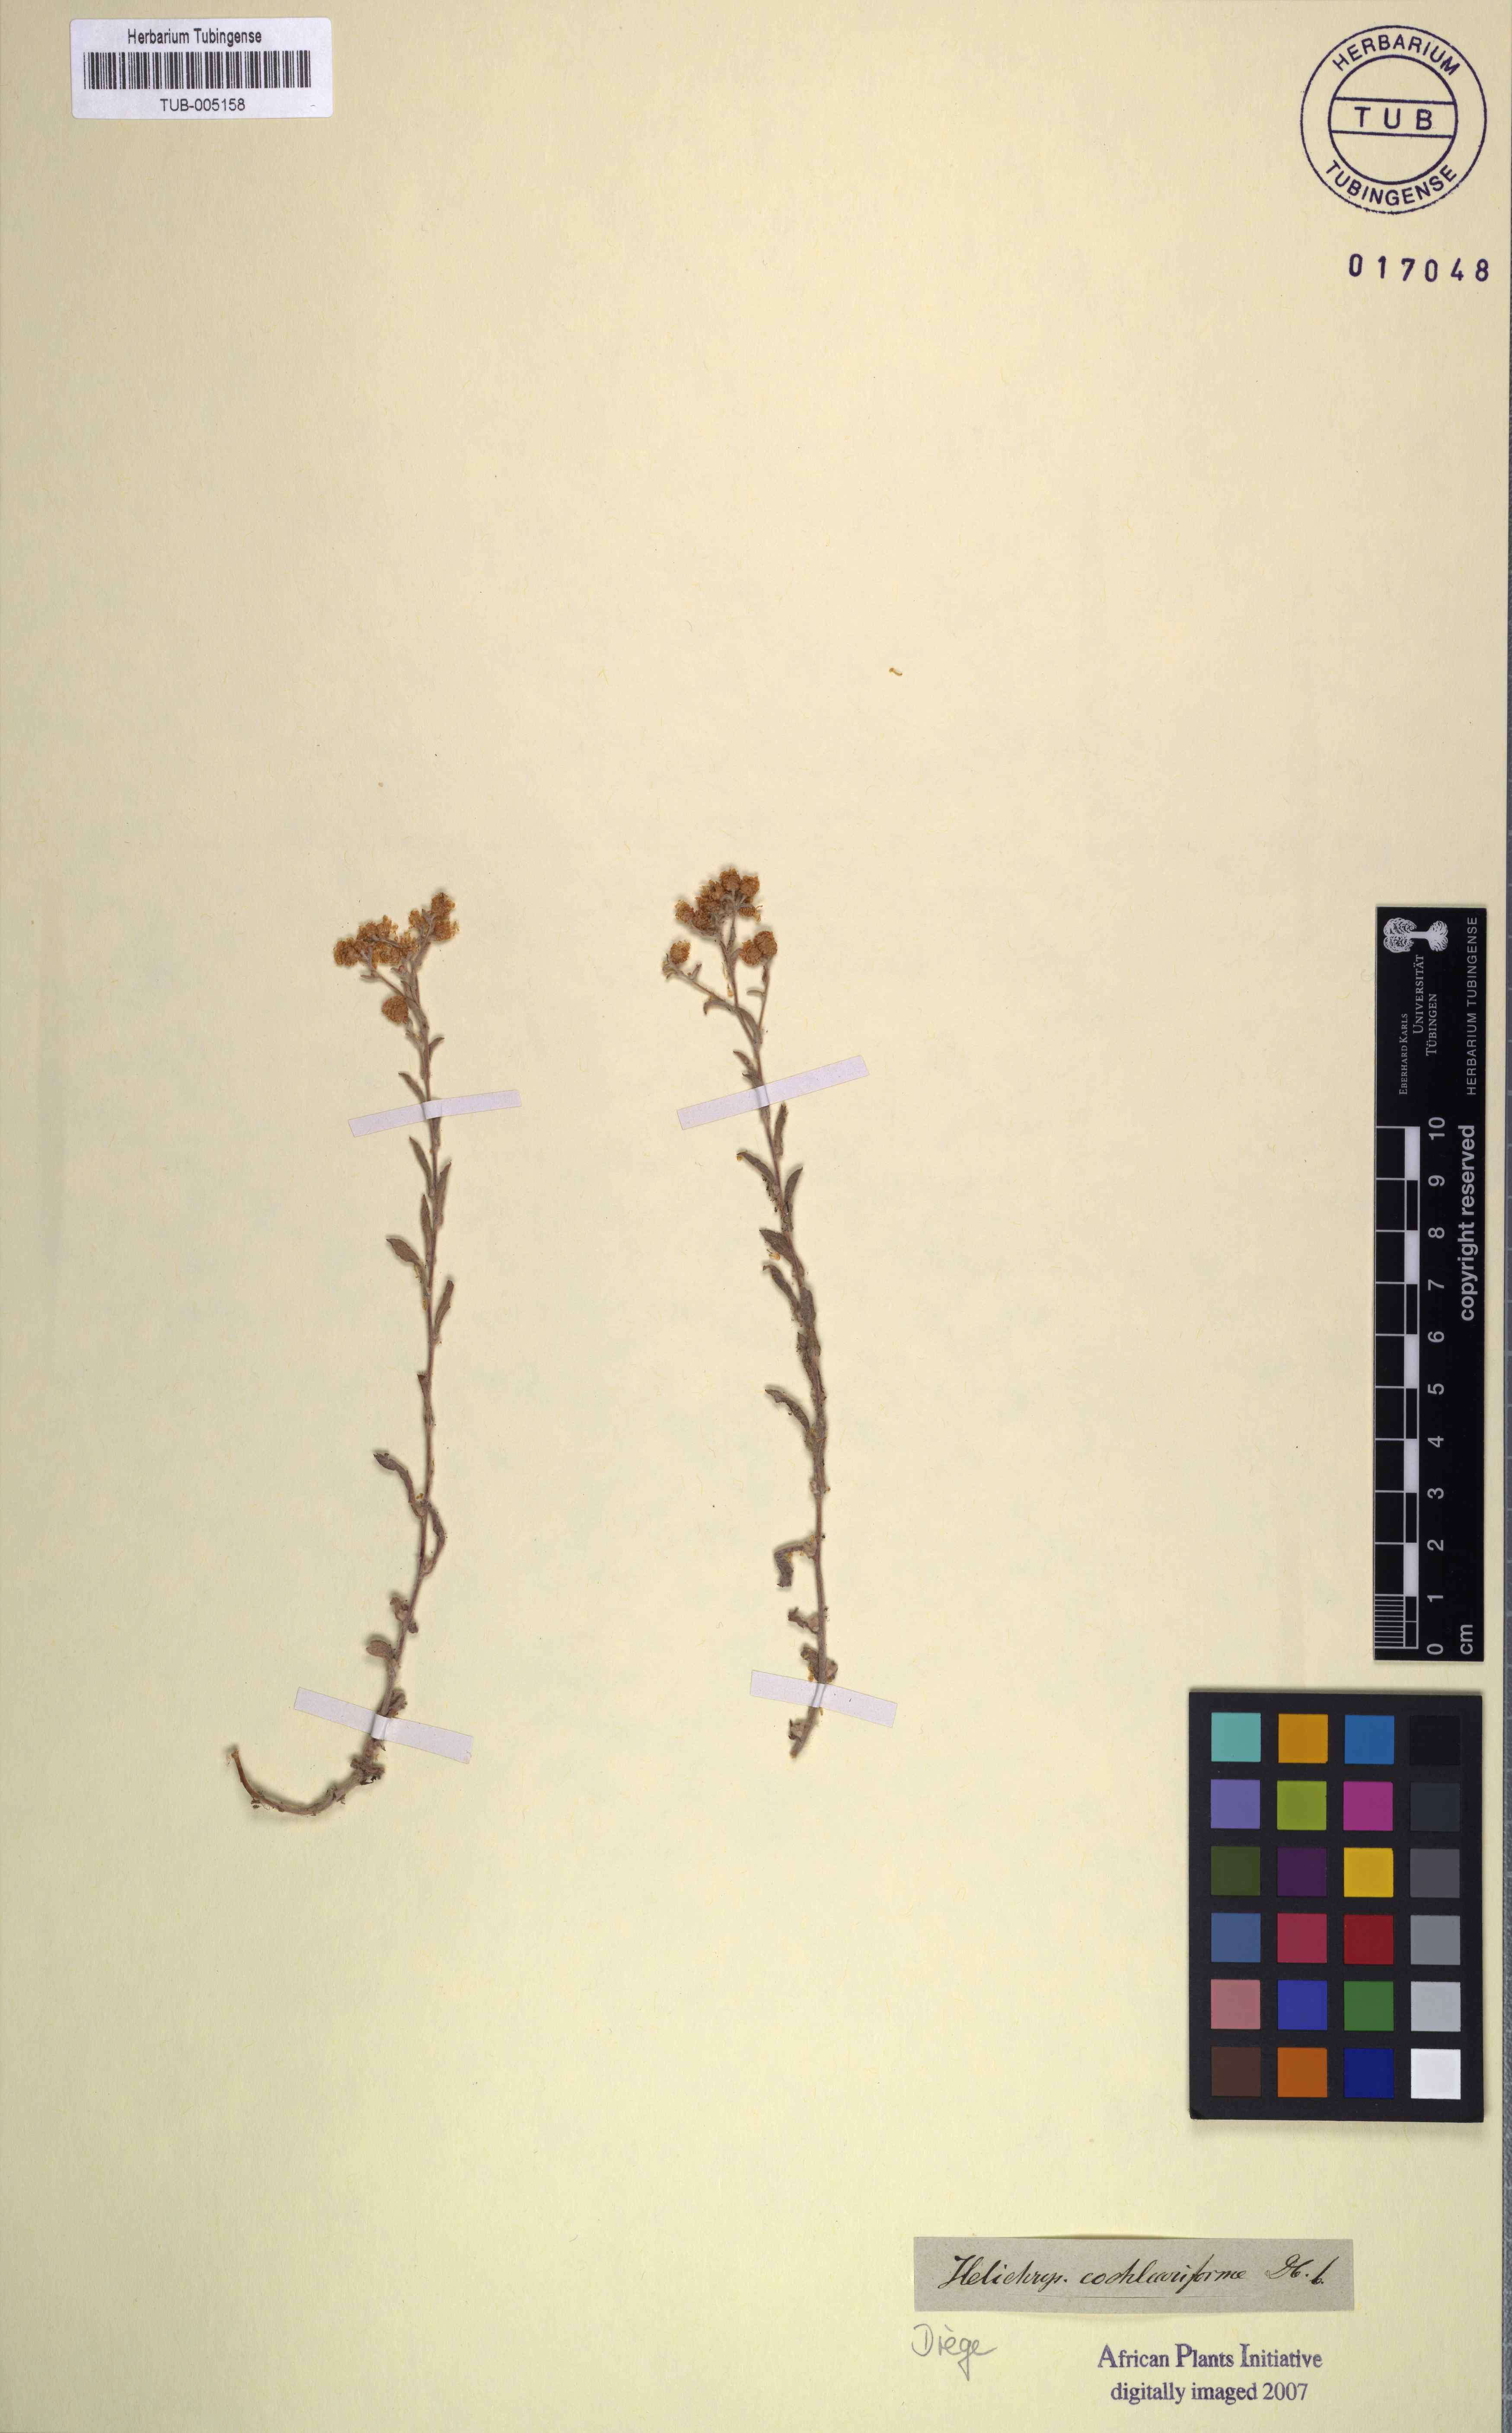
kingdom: Plantae
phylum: Tracheophyta
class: Magnoliopsida
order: Asterales
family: Asteraceae
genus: Helichrysum
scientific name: Helichrysum cochleariforme
